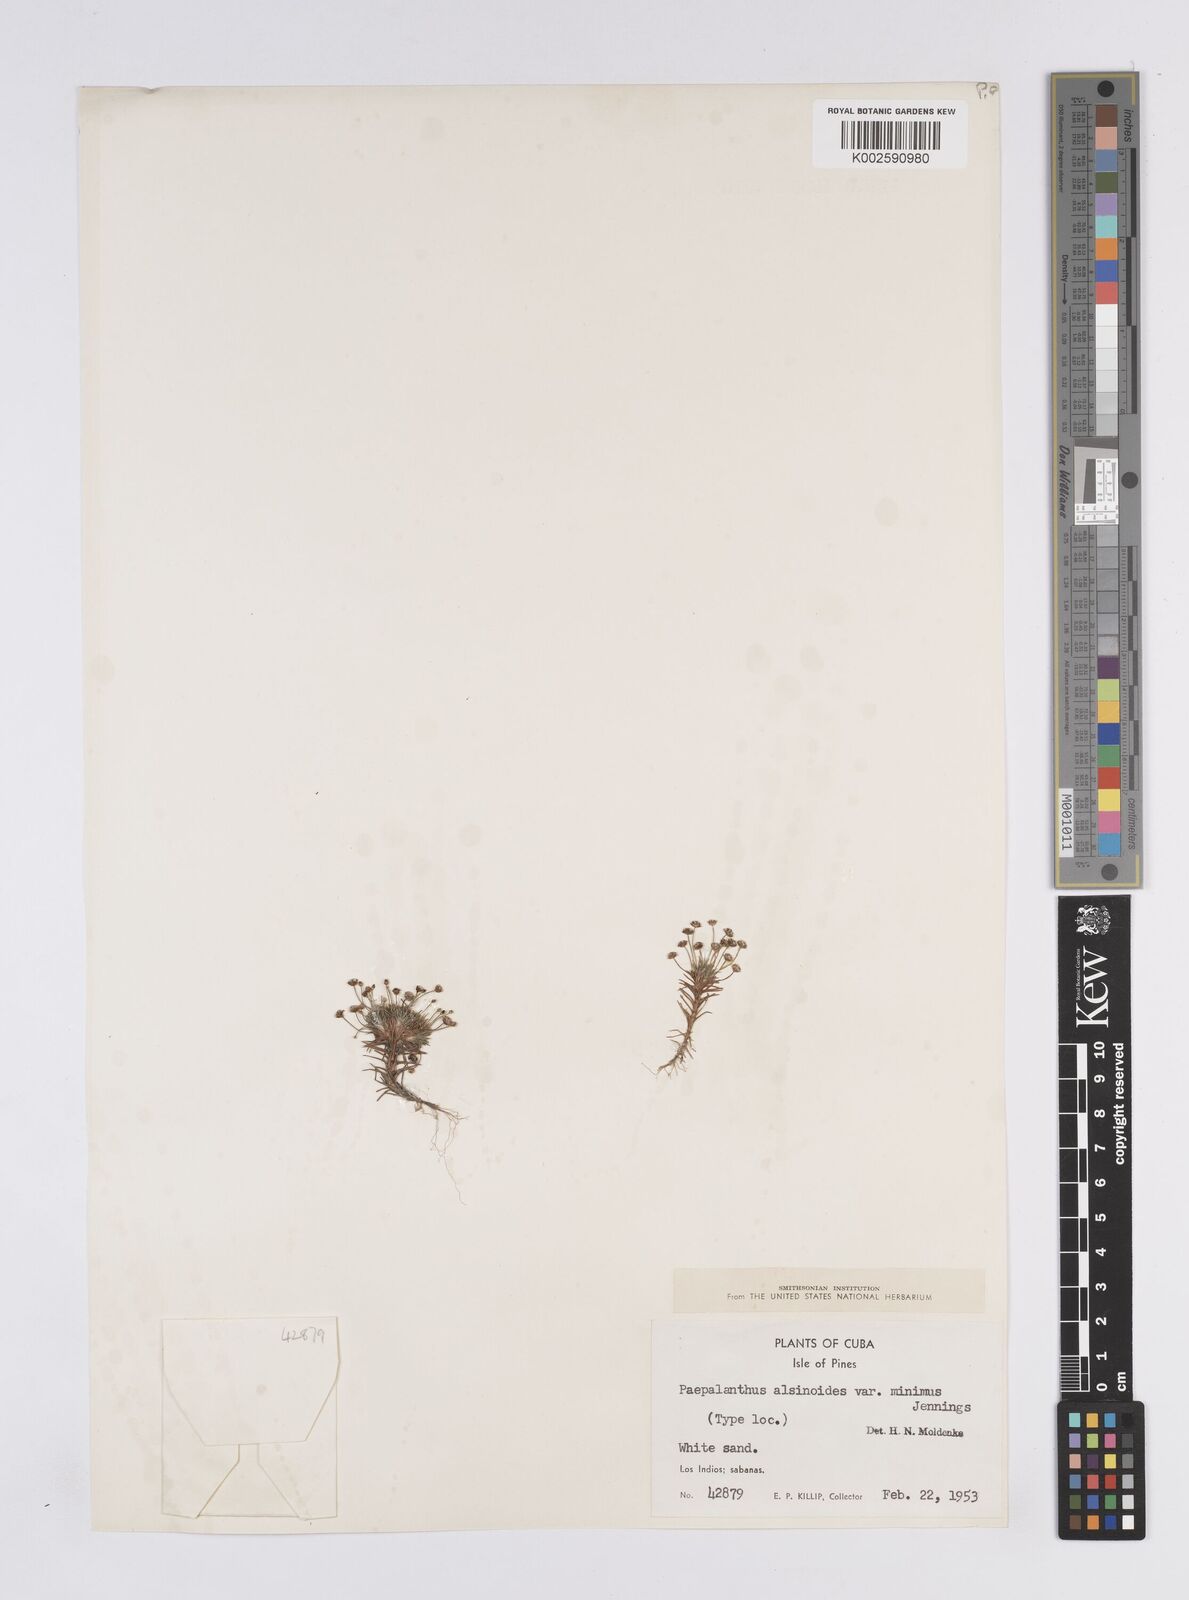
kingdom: Plantae
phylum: Tracheophyta
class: Liliopsida
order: Poales
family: Eriocaulaceae
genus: Paepalanthus
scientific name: Paepalanthus alsinoides
